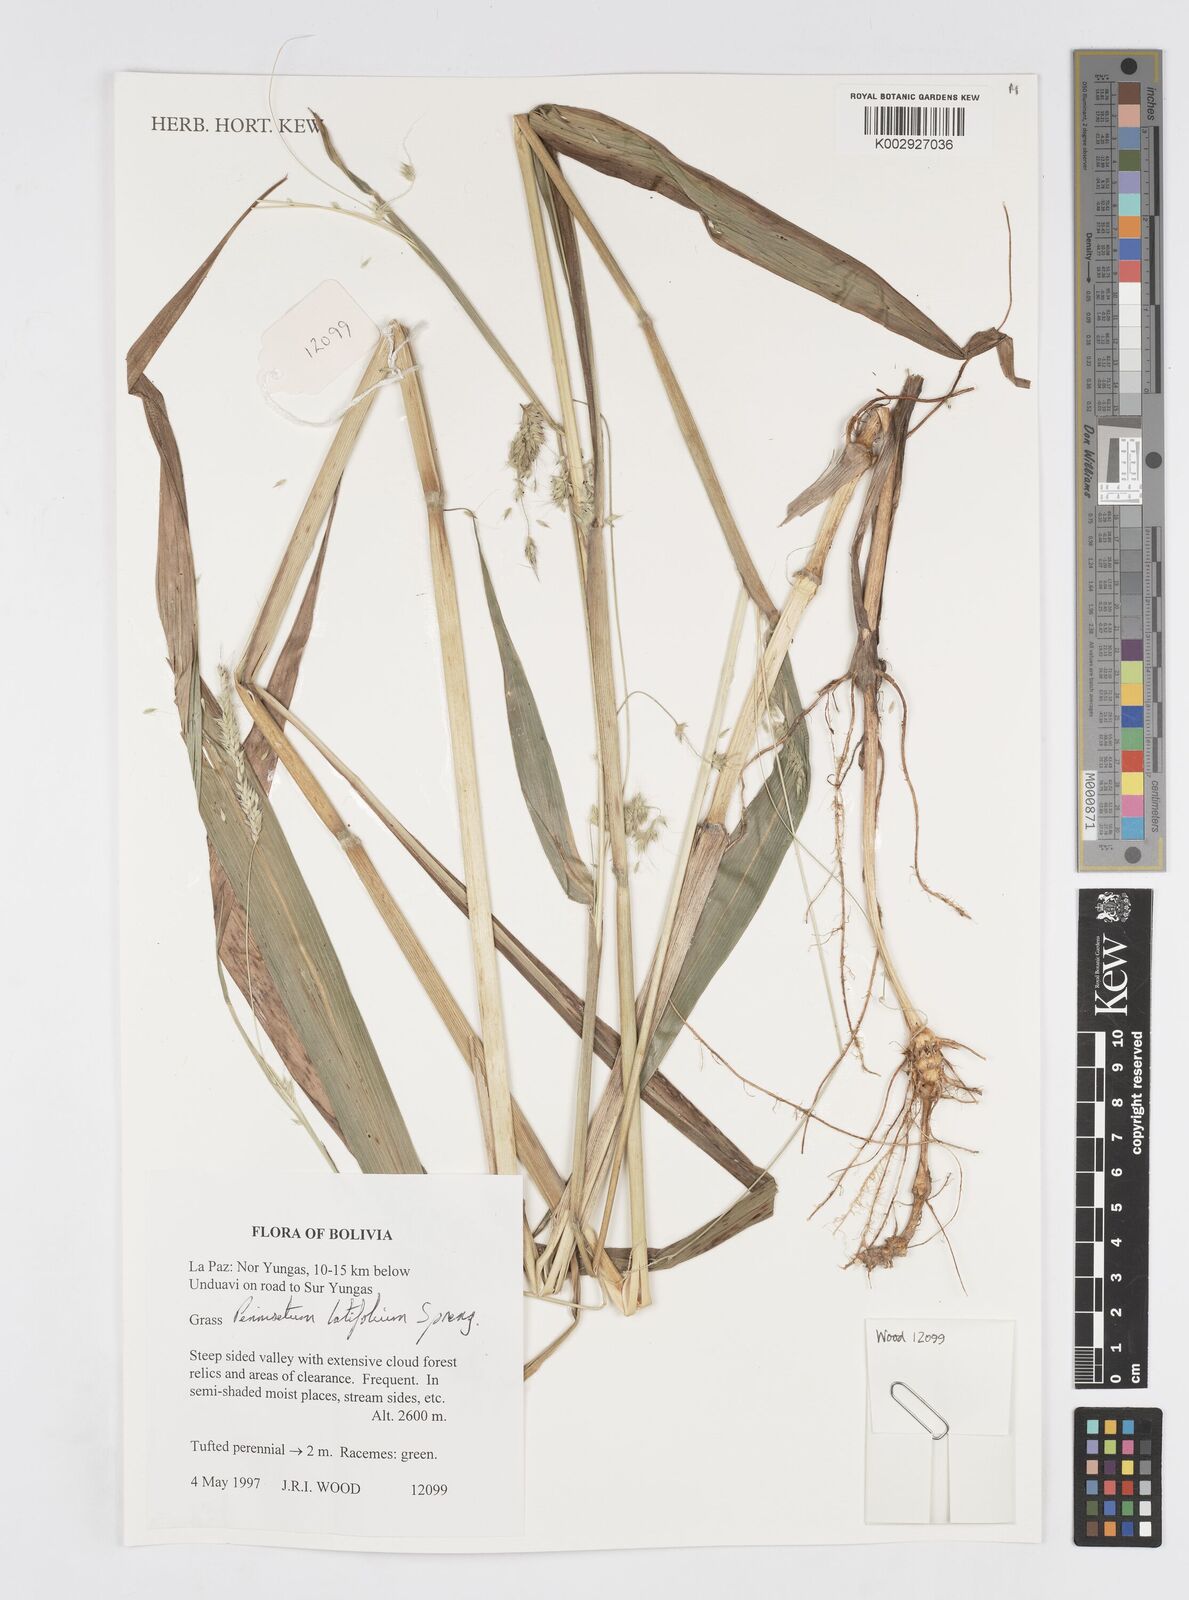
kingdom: Plantae
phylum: Tracheophyta
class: Liliopsida
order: Poales
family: Poaceae
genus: Cenchrus
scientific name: Cenchrus latifolius
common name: Sandbur
